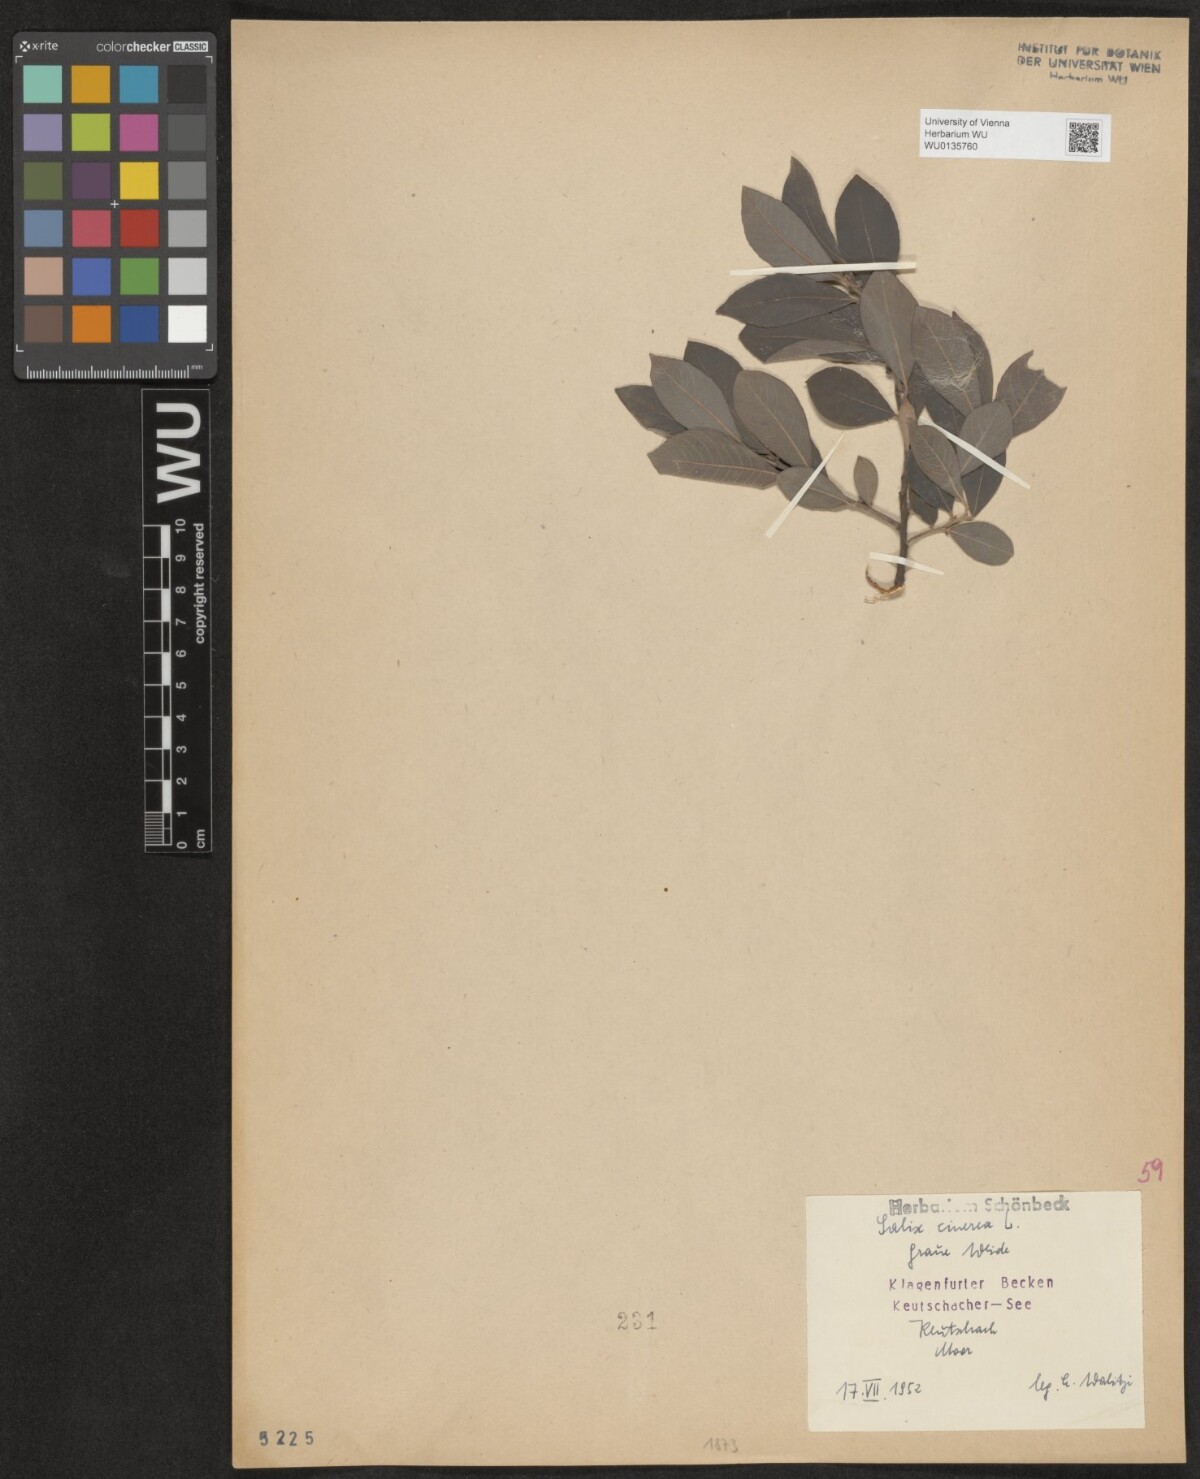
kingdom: Plantae
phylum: Tracheophyta
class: Magnoliopsida
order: Malpighiales
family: Salicaceae
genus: Salix
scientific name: Salix cinerea
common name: Common sallow
